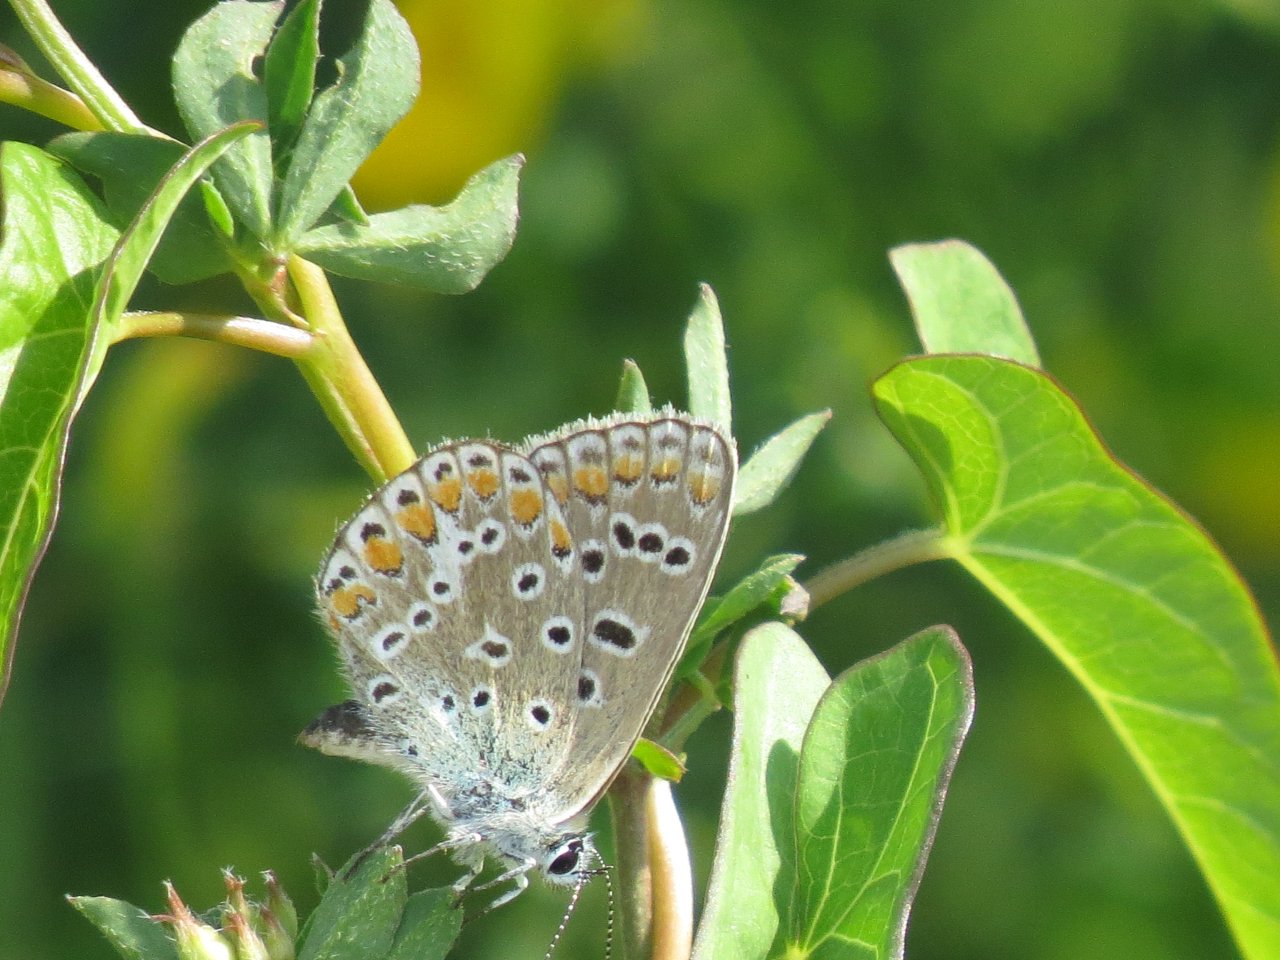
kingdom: Animalia
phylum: Arthropoda
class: Insecta
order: Lepidoptera
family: Lycaenidae
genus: Polyommatus
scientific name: Polyommatus icarus
